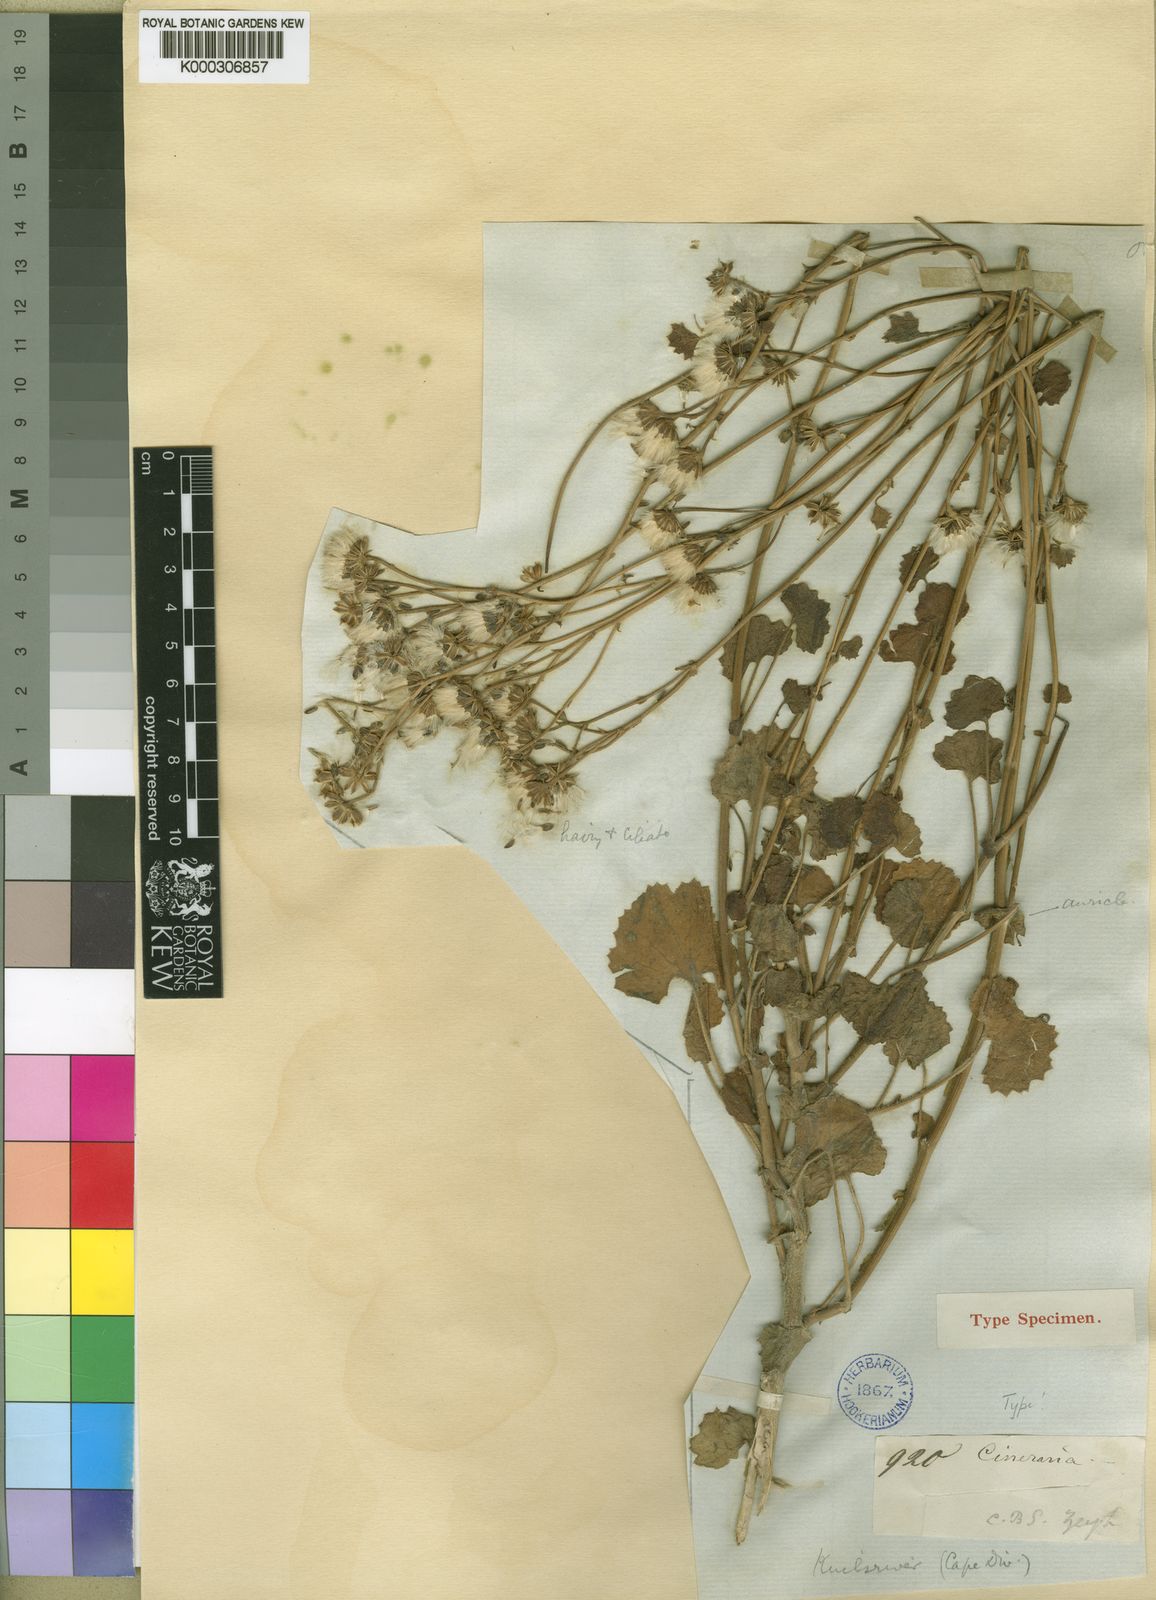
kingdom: Plantae
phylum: Tracheophyta
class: Magnoliopsida
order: Asterales
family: Asteraceae
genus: Cineraria
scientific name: Cineraria geifolia
